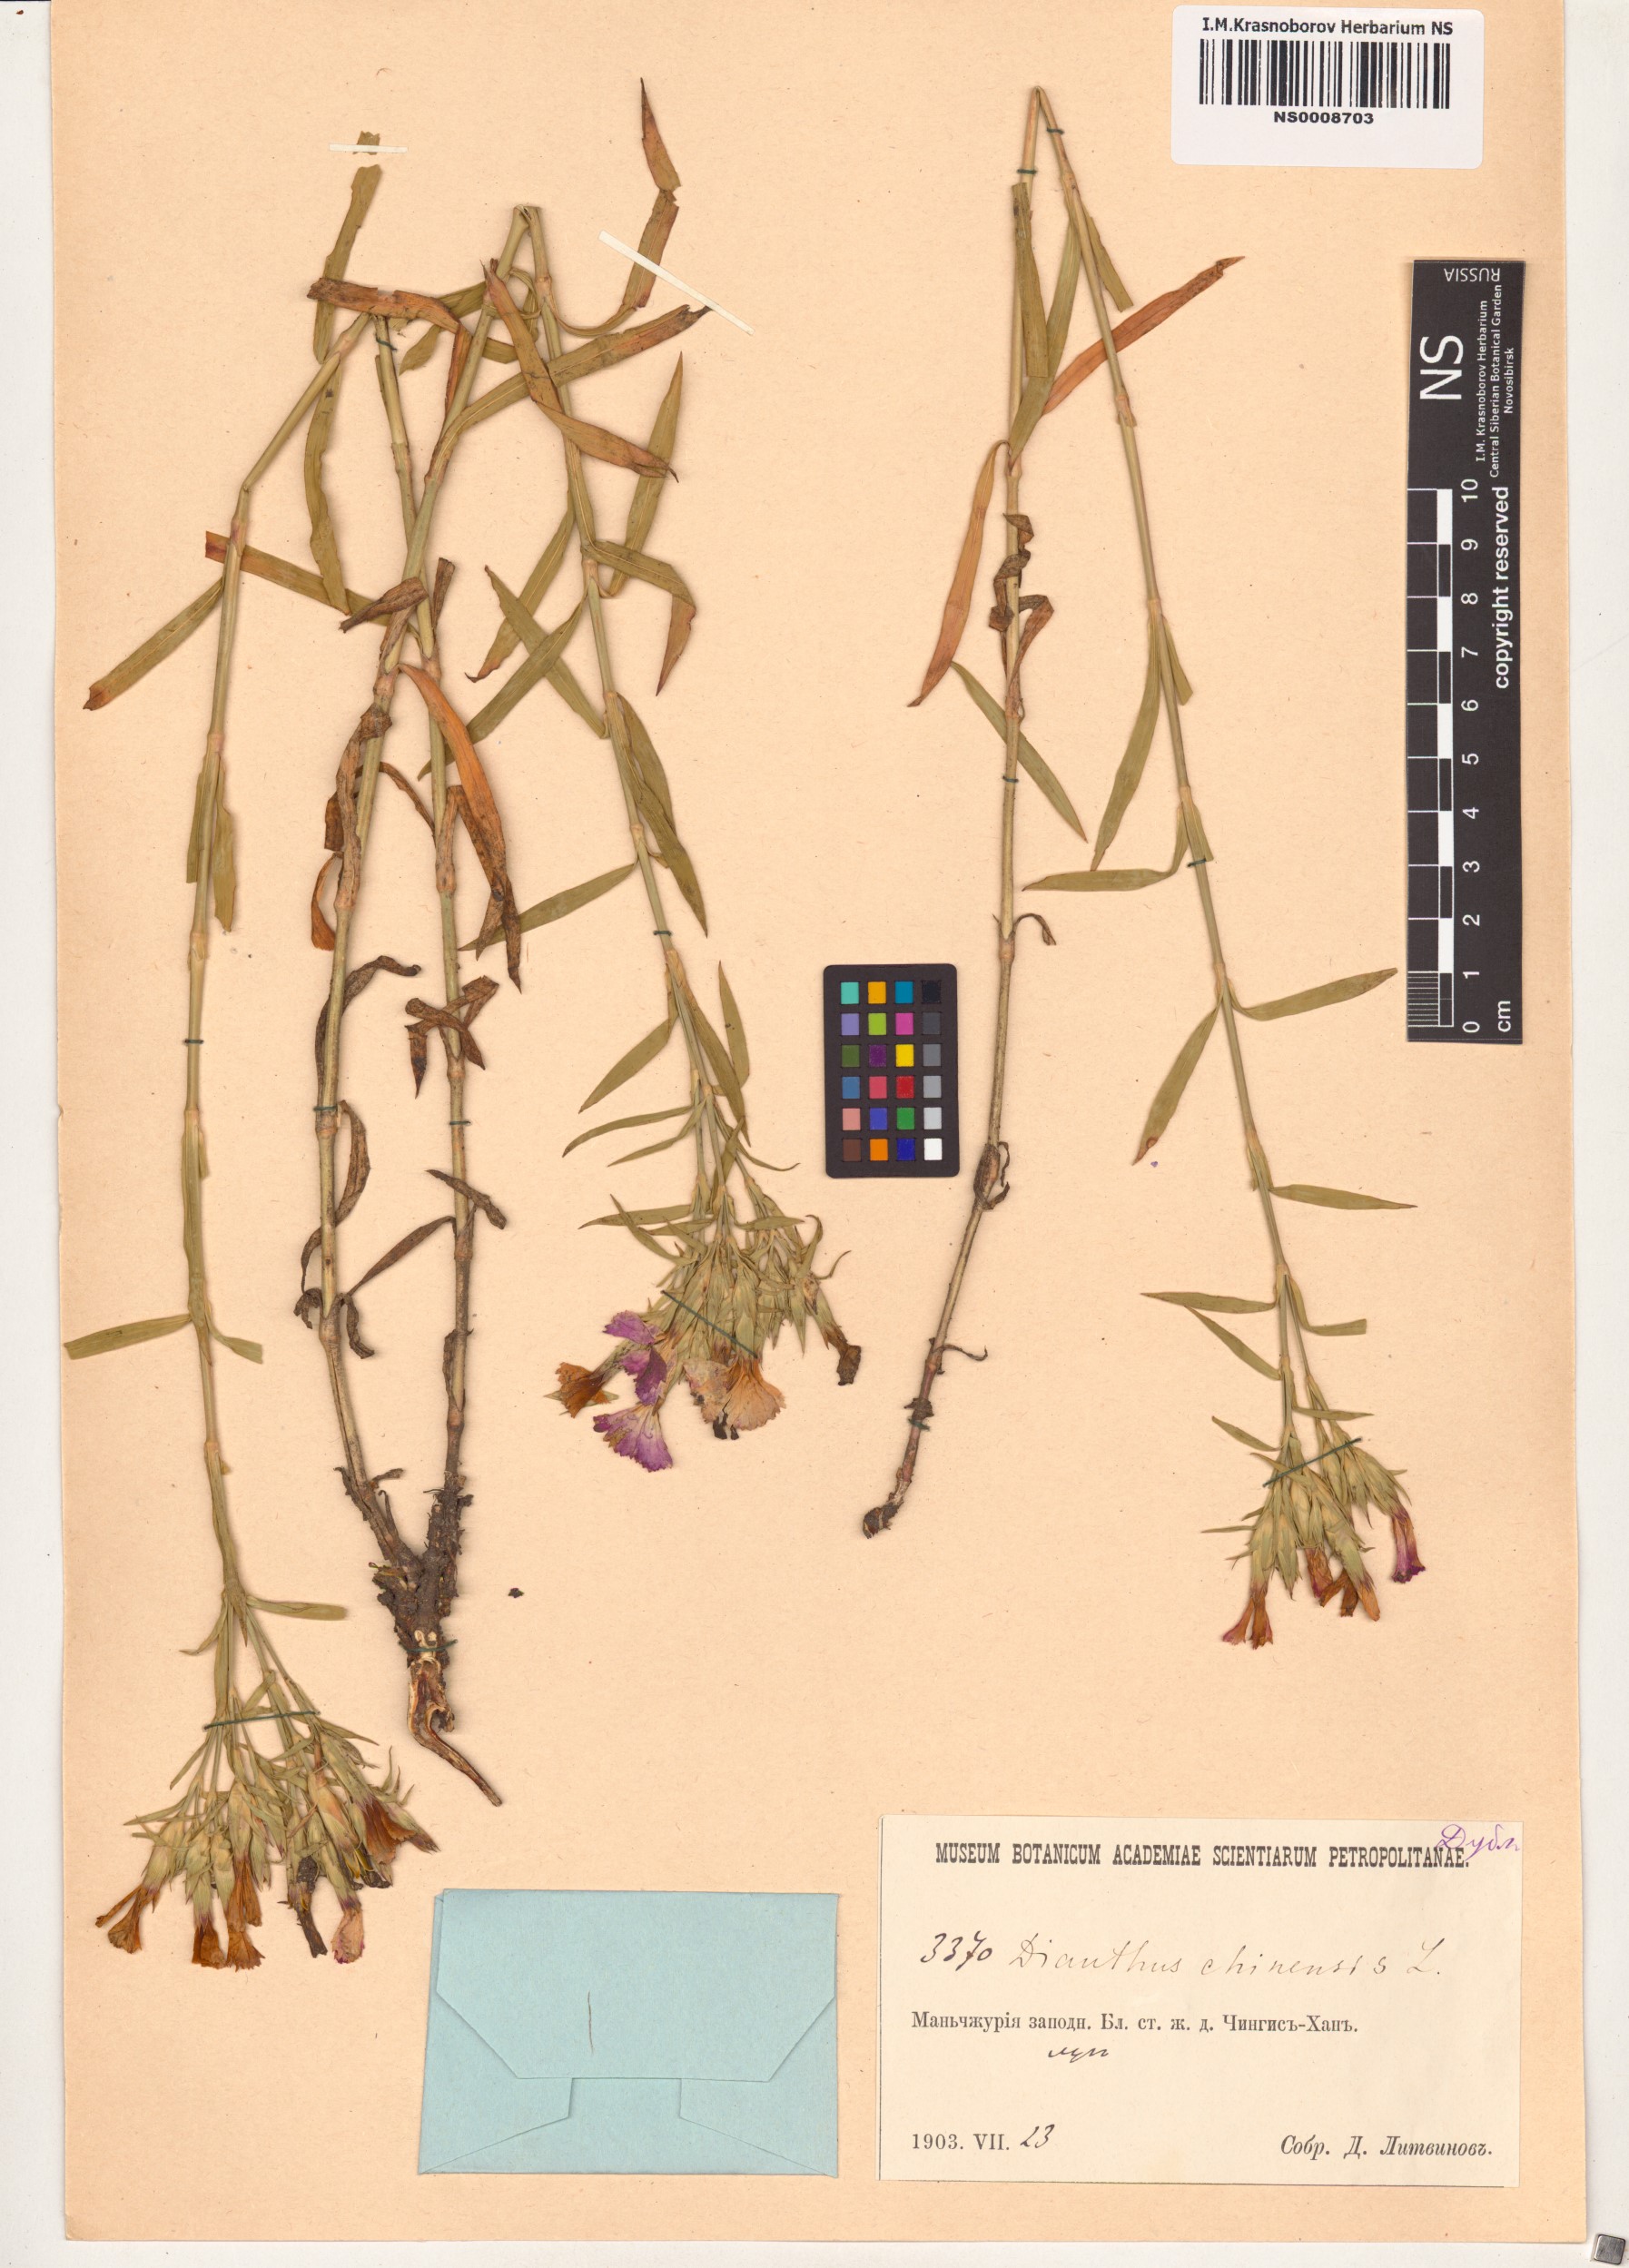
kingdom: Plantae
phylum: Tracheophyta
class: Magnoliopsida
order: Caryophyllales
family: Caryophyllaceae
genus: Dianthus
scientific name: Dianthus chinensis
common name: Rainbow pink
